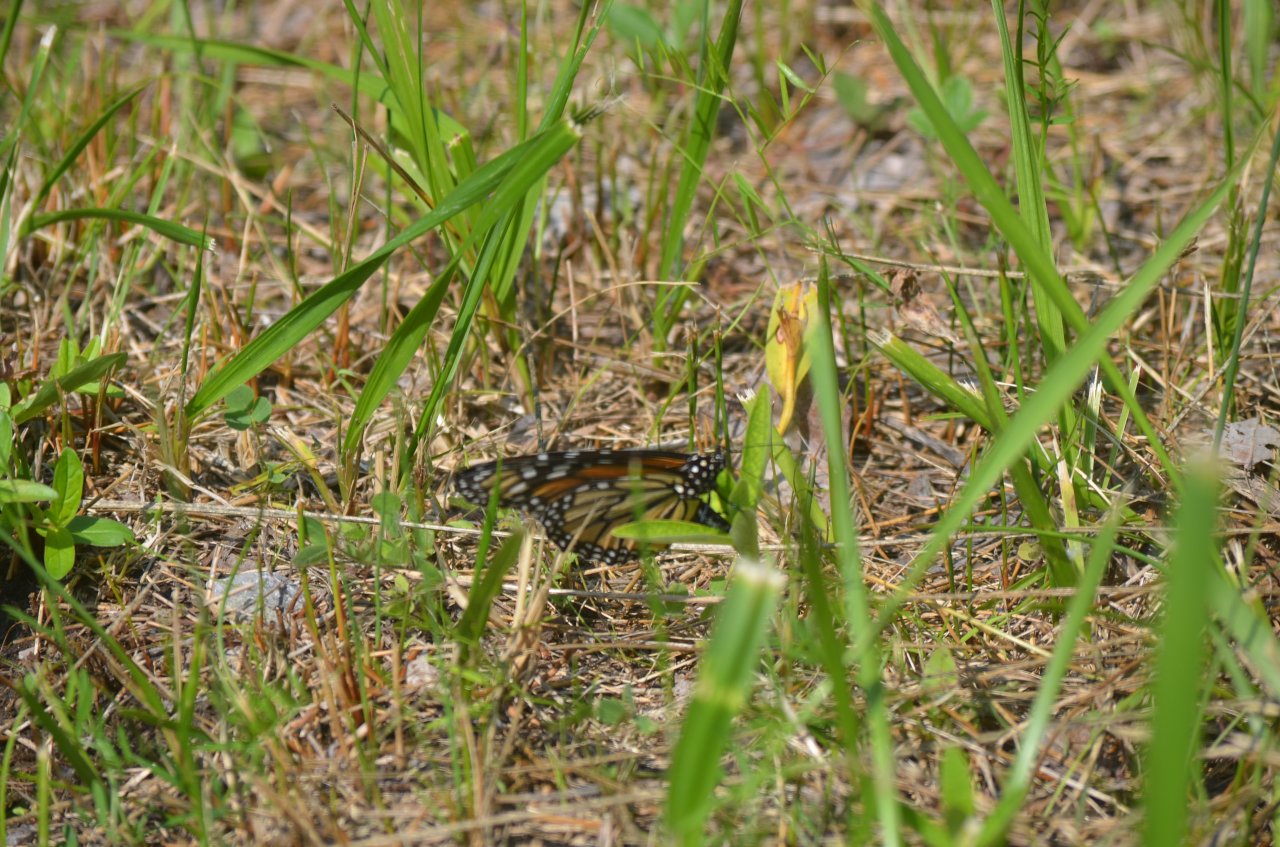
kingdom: Animalia
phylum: Arthropoda
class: Insecta
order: Lepidoptera
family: Nymphalidae
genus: Danaus
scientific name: Danaus plexippus
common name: Monarch
